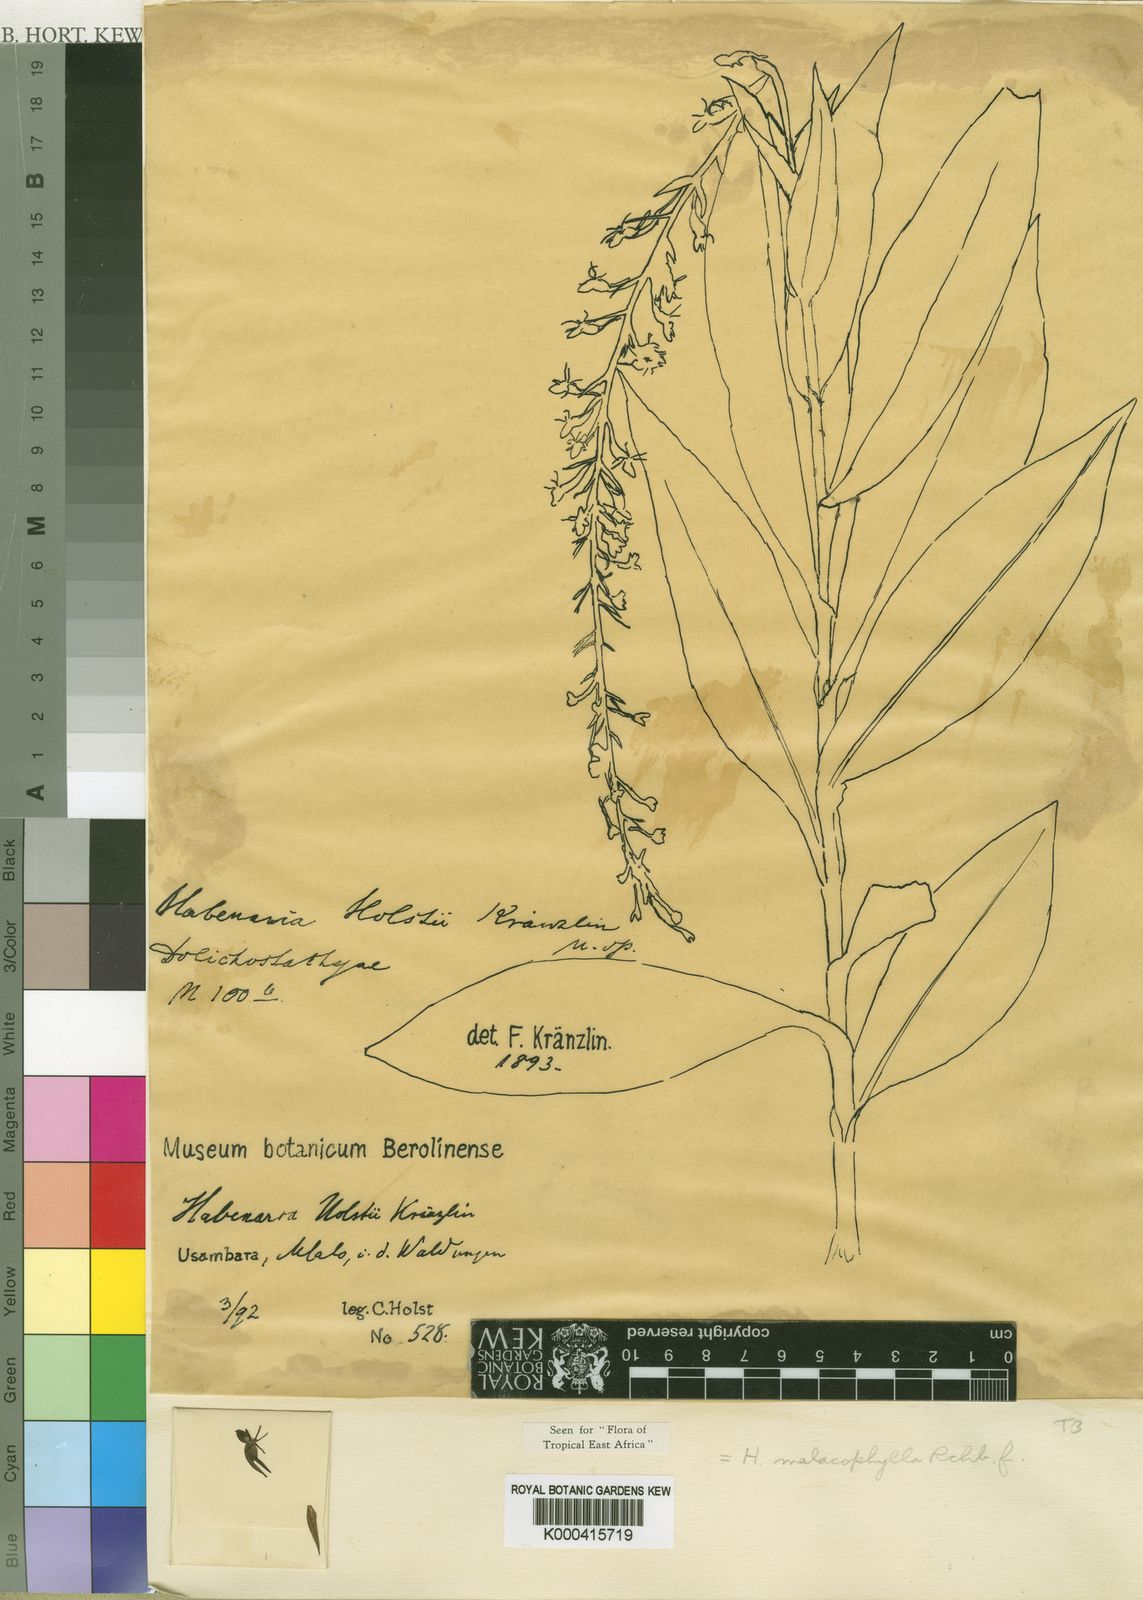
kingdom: Plantae
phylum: Tracheophyta
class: Liliopsida
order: Asparagales
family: Orchidaceae
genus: Habenaria
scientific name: Habenaria malacophylla
